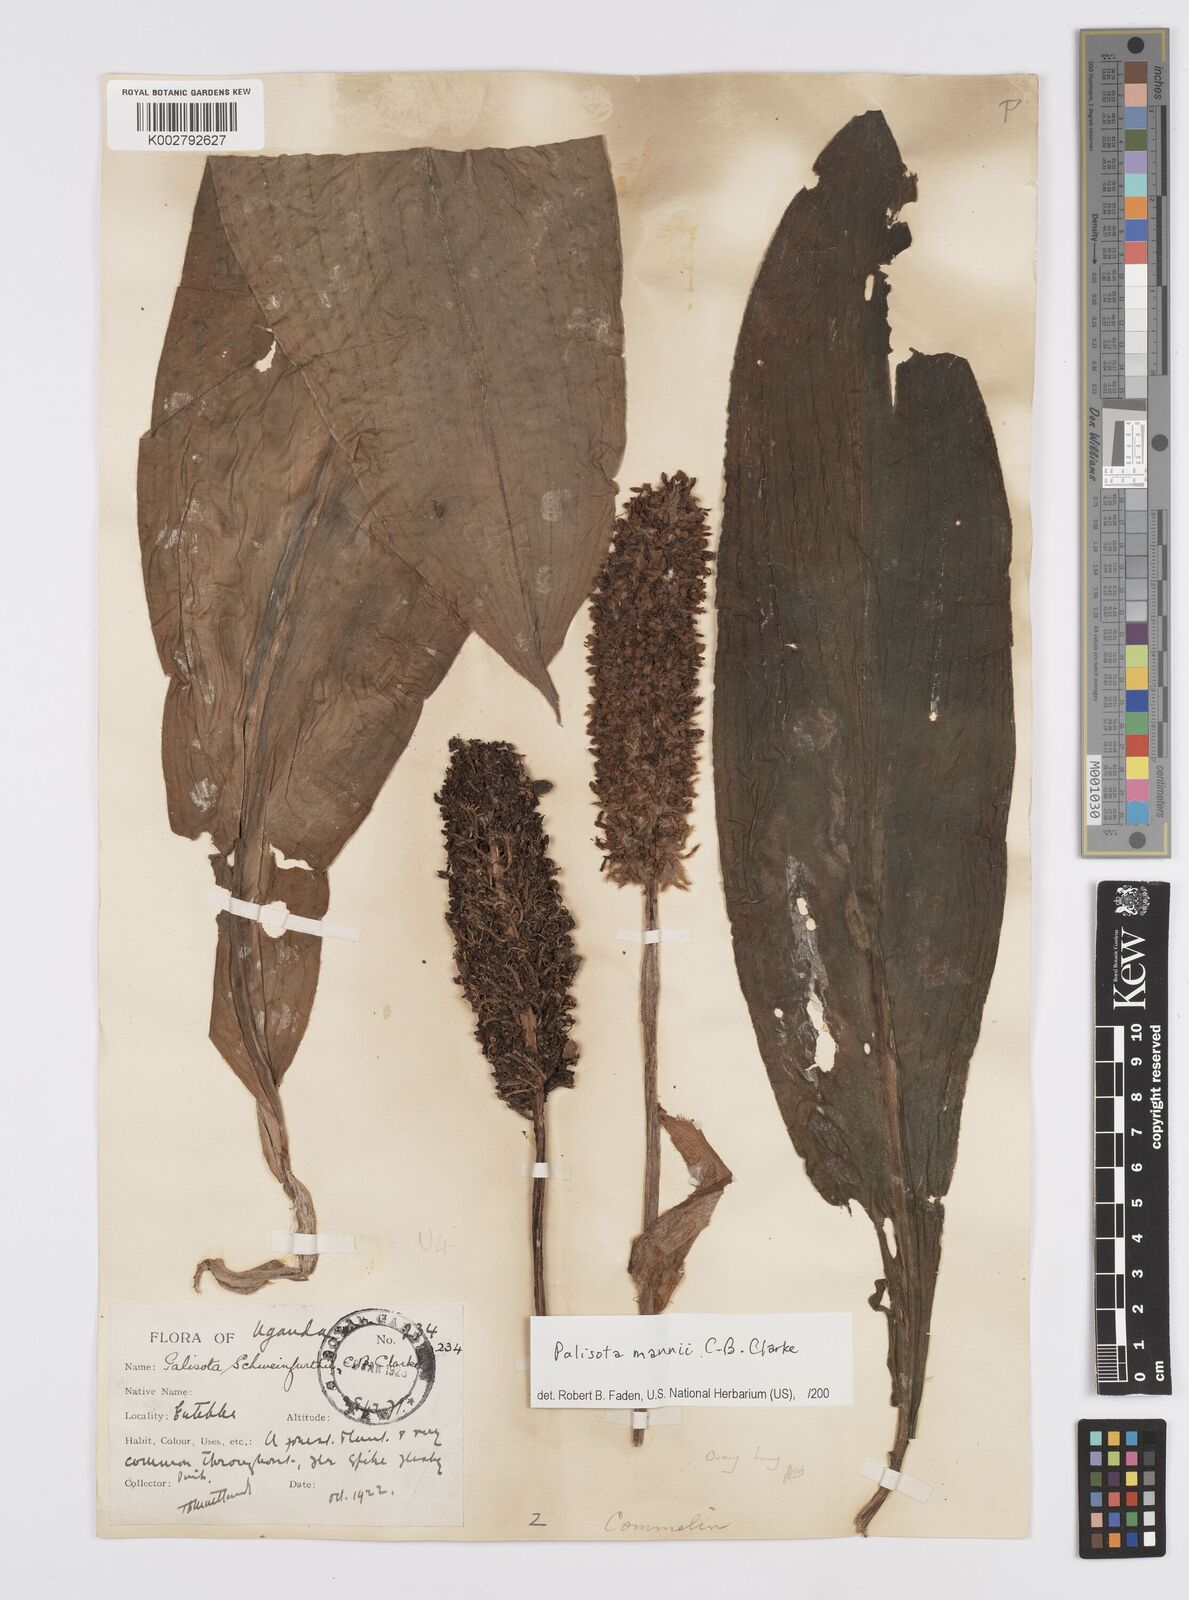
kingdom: Plantae
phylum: Tracheophyta
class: Liliopsida
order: Commelinales
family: Commelinaceae
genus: Palisota
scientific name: Palisota mannii
